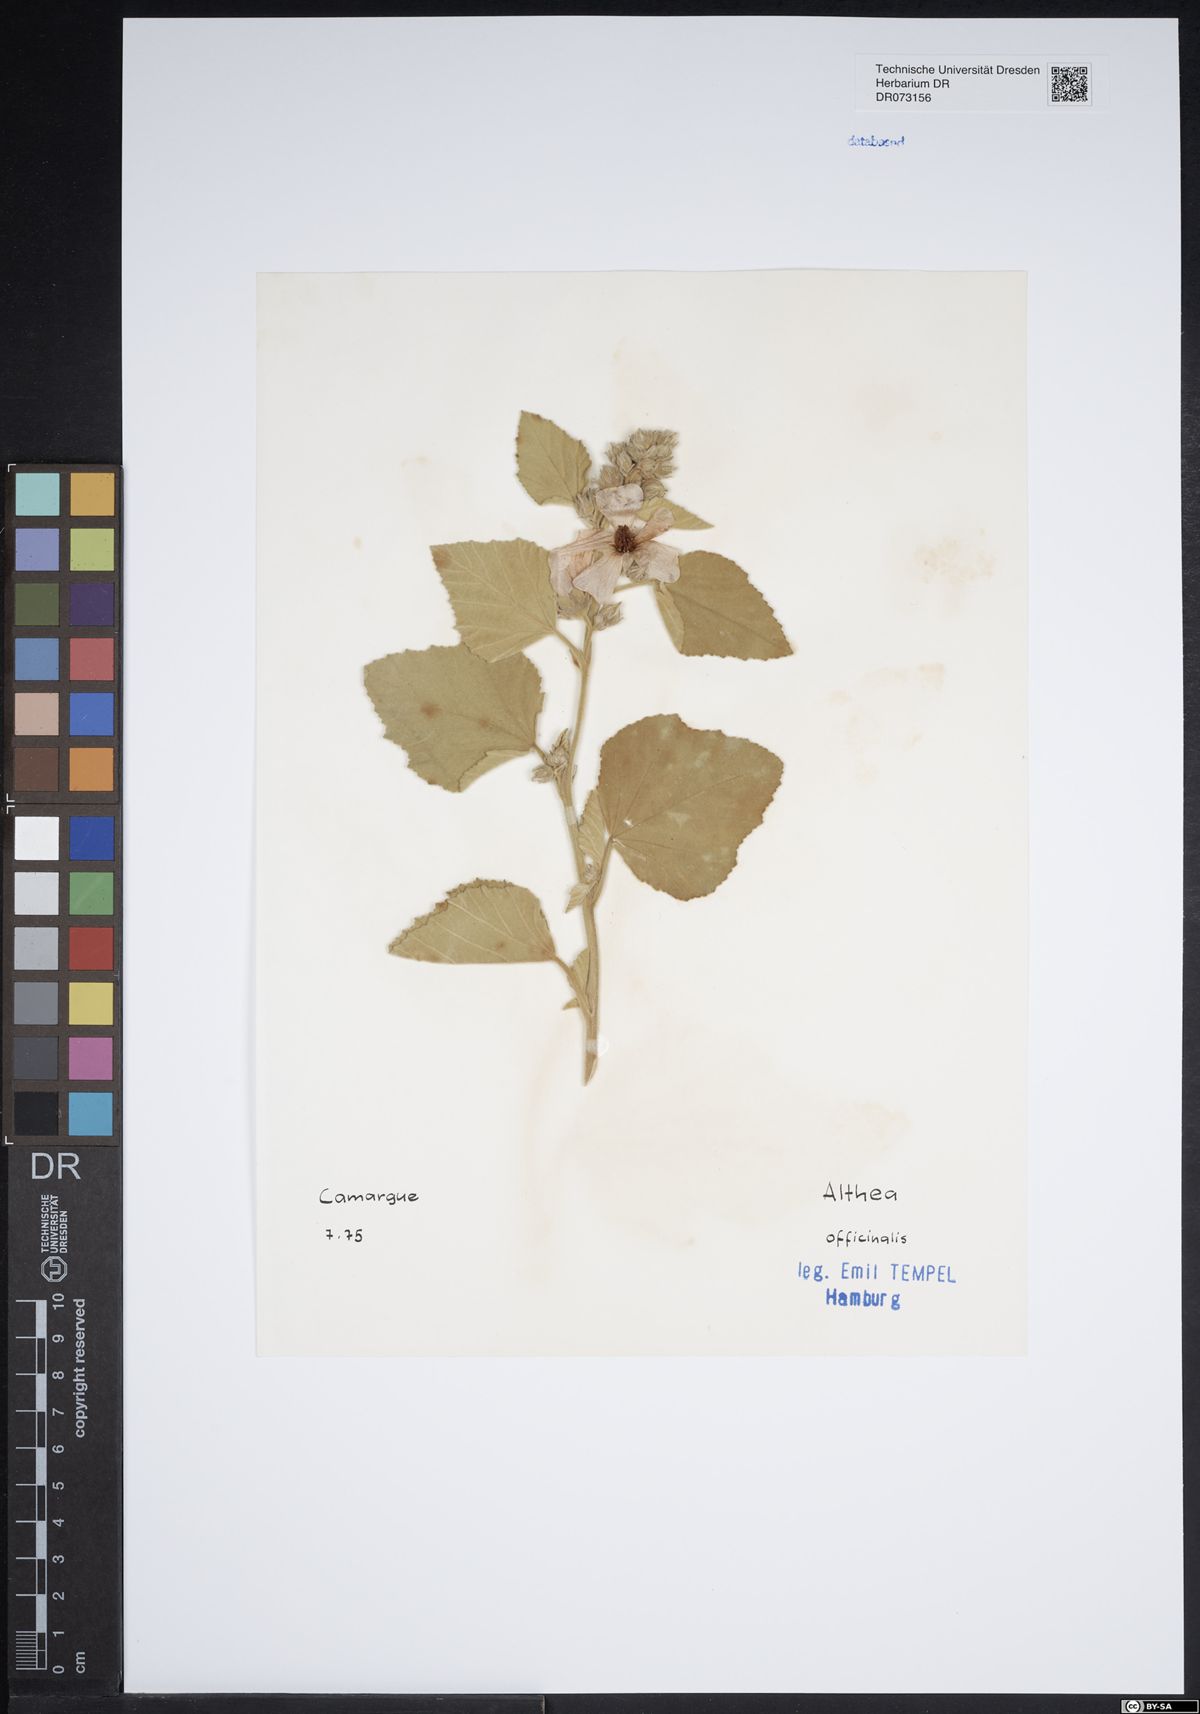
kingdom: Plantae
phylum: Tracheophyta
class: Magnoliopsida
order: Malvales
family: Malvaceae
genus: Althaea
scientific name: Althaea officinalis
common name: Marsh-mallow
